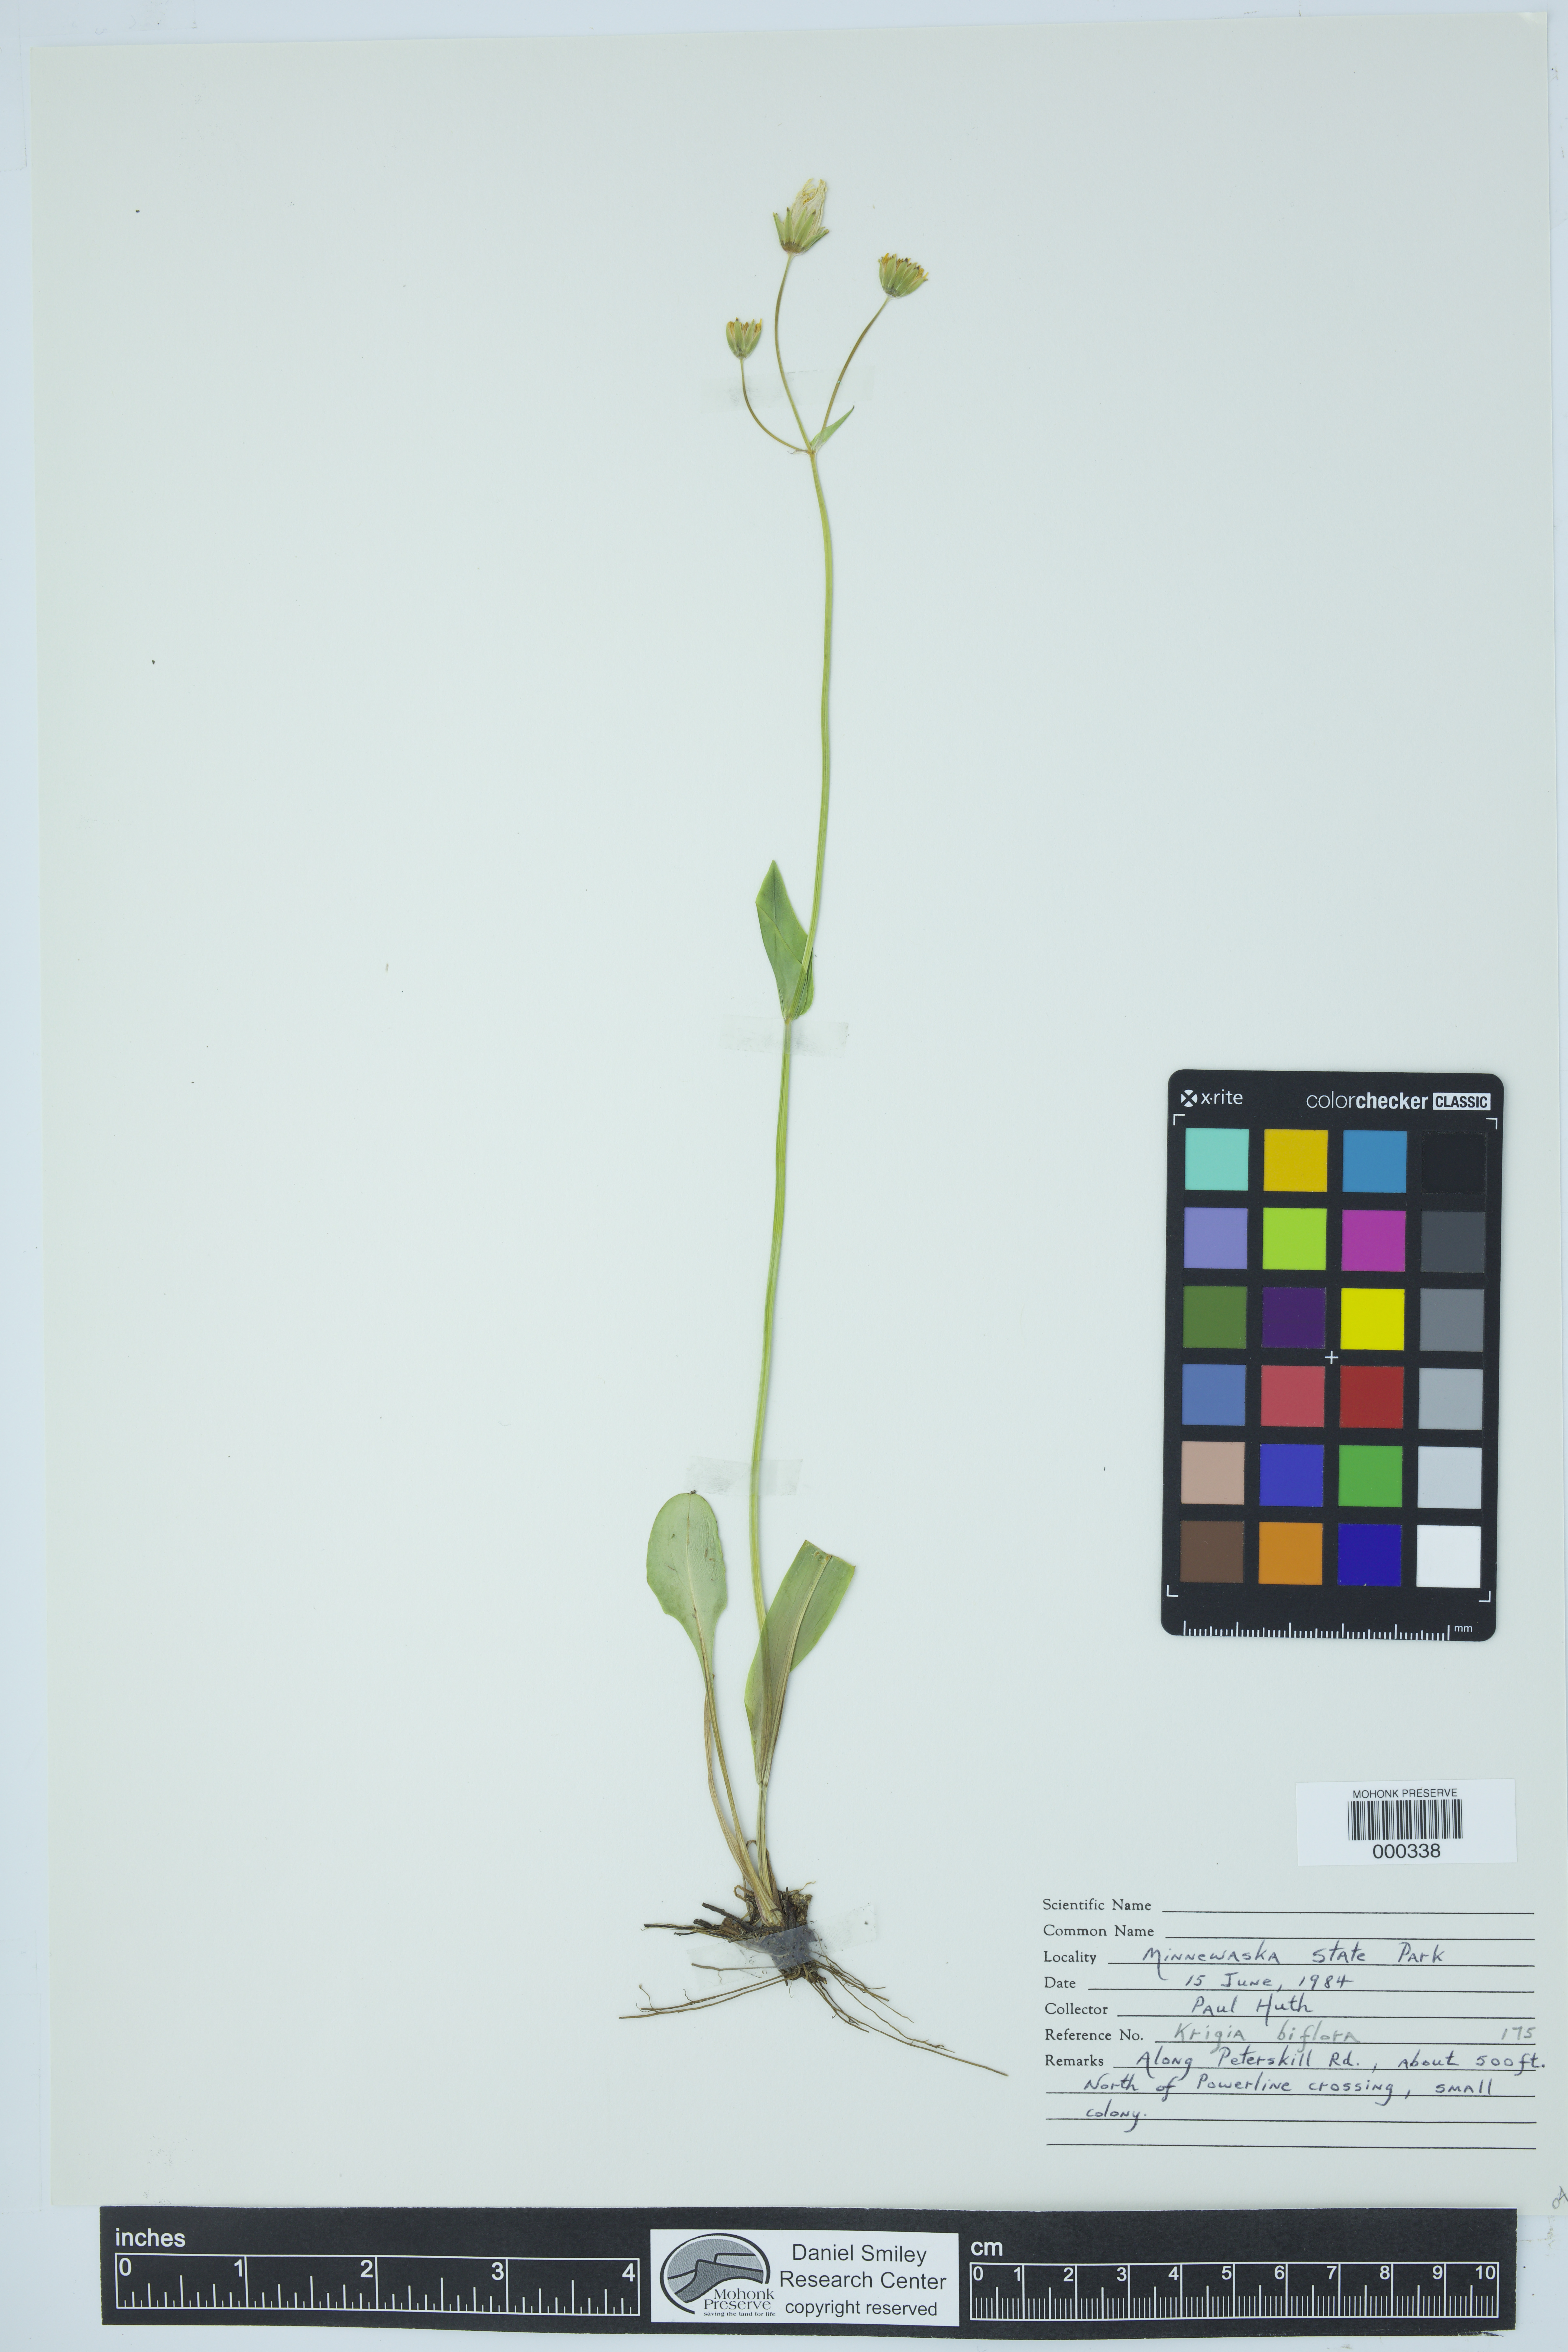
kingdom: Plantae
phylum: Tracheophyta
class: Magnoliopsida
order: Asterales
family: Asteraceae
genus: Krigia
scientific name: Krigia biflora
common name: Orange dwarf-dandelion
